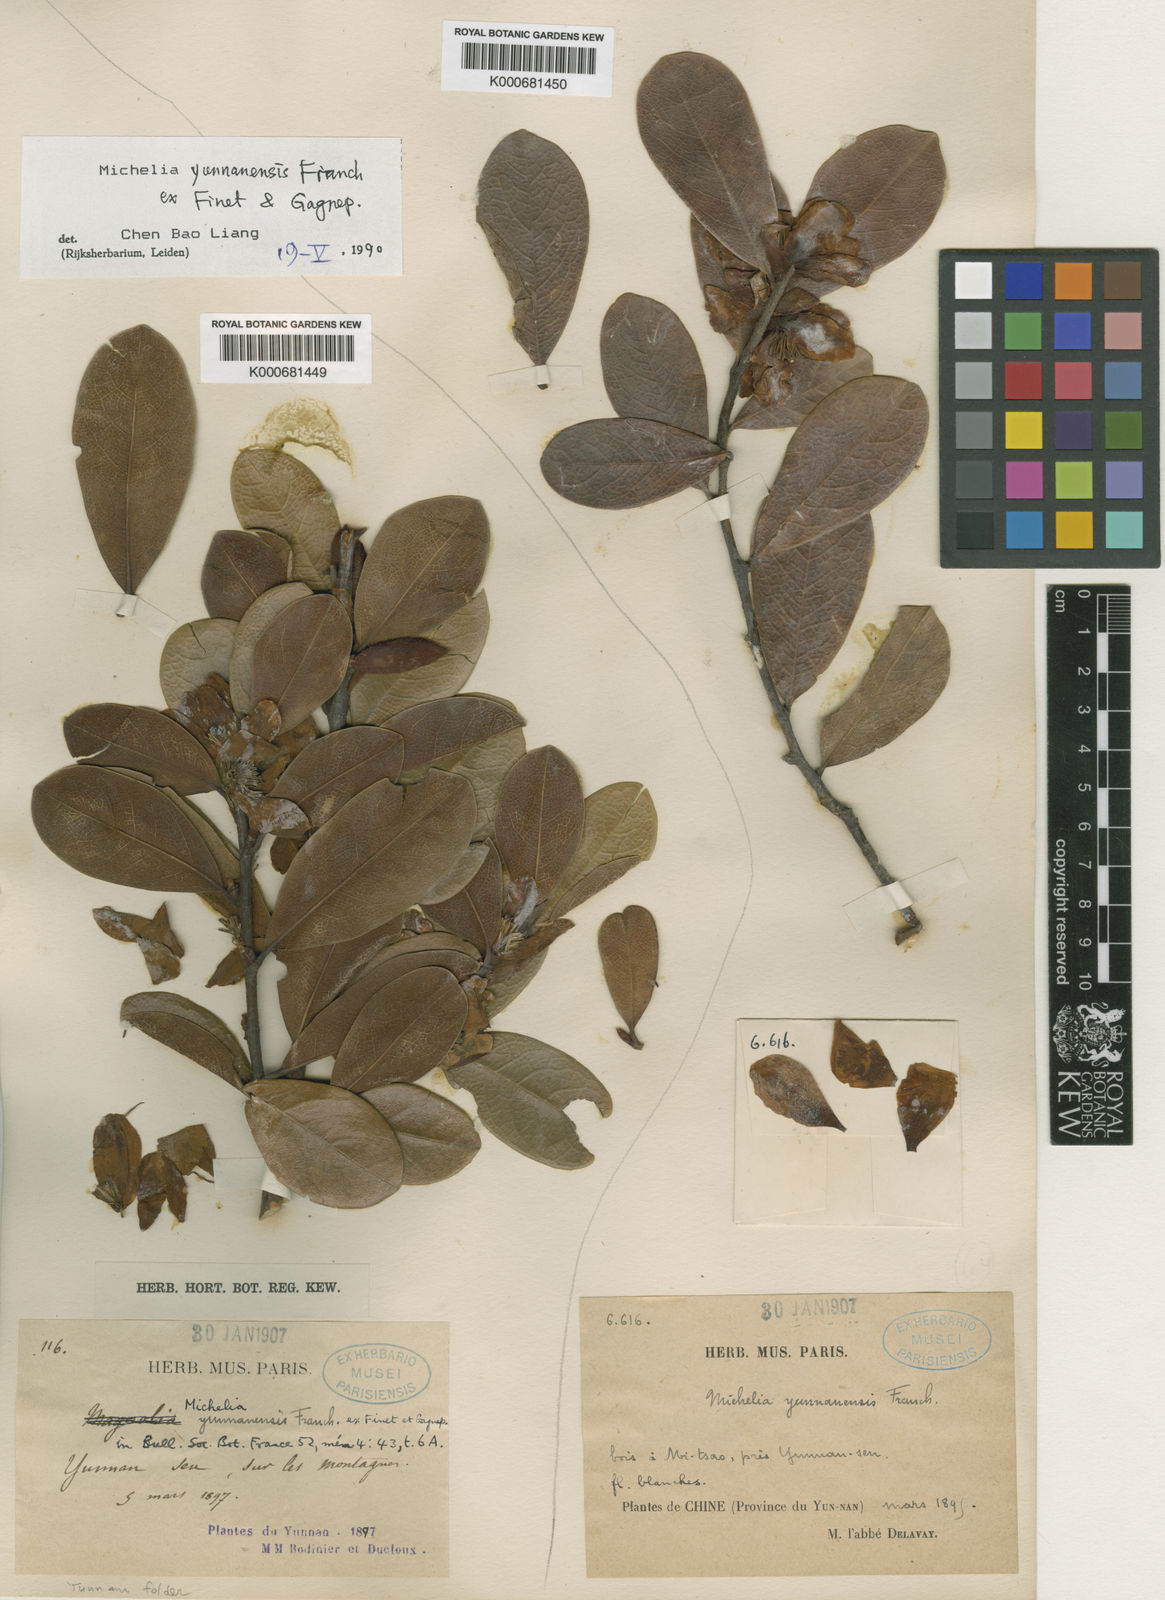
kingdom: Plantae
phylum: Tracheophyta
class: Magnoliopsida
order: Magnoliales
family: Magnoliaceae
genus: Magnolia
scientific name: Magnolia ernestii
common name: Yellow lily-tree
